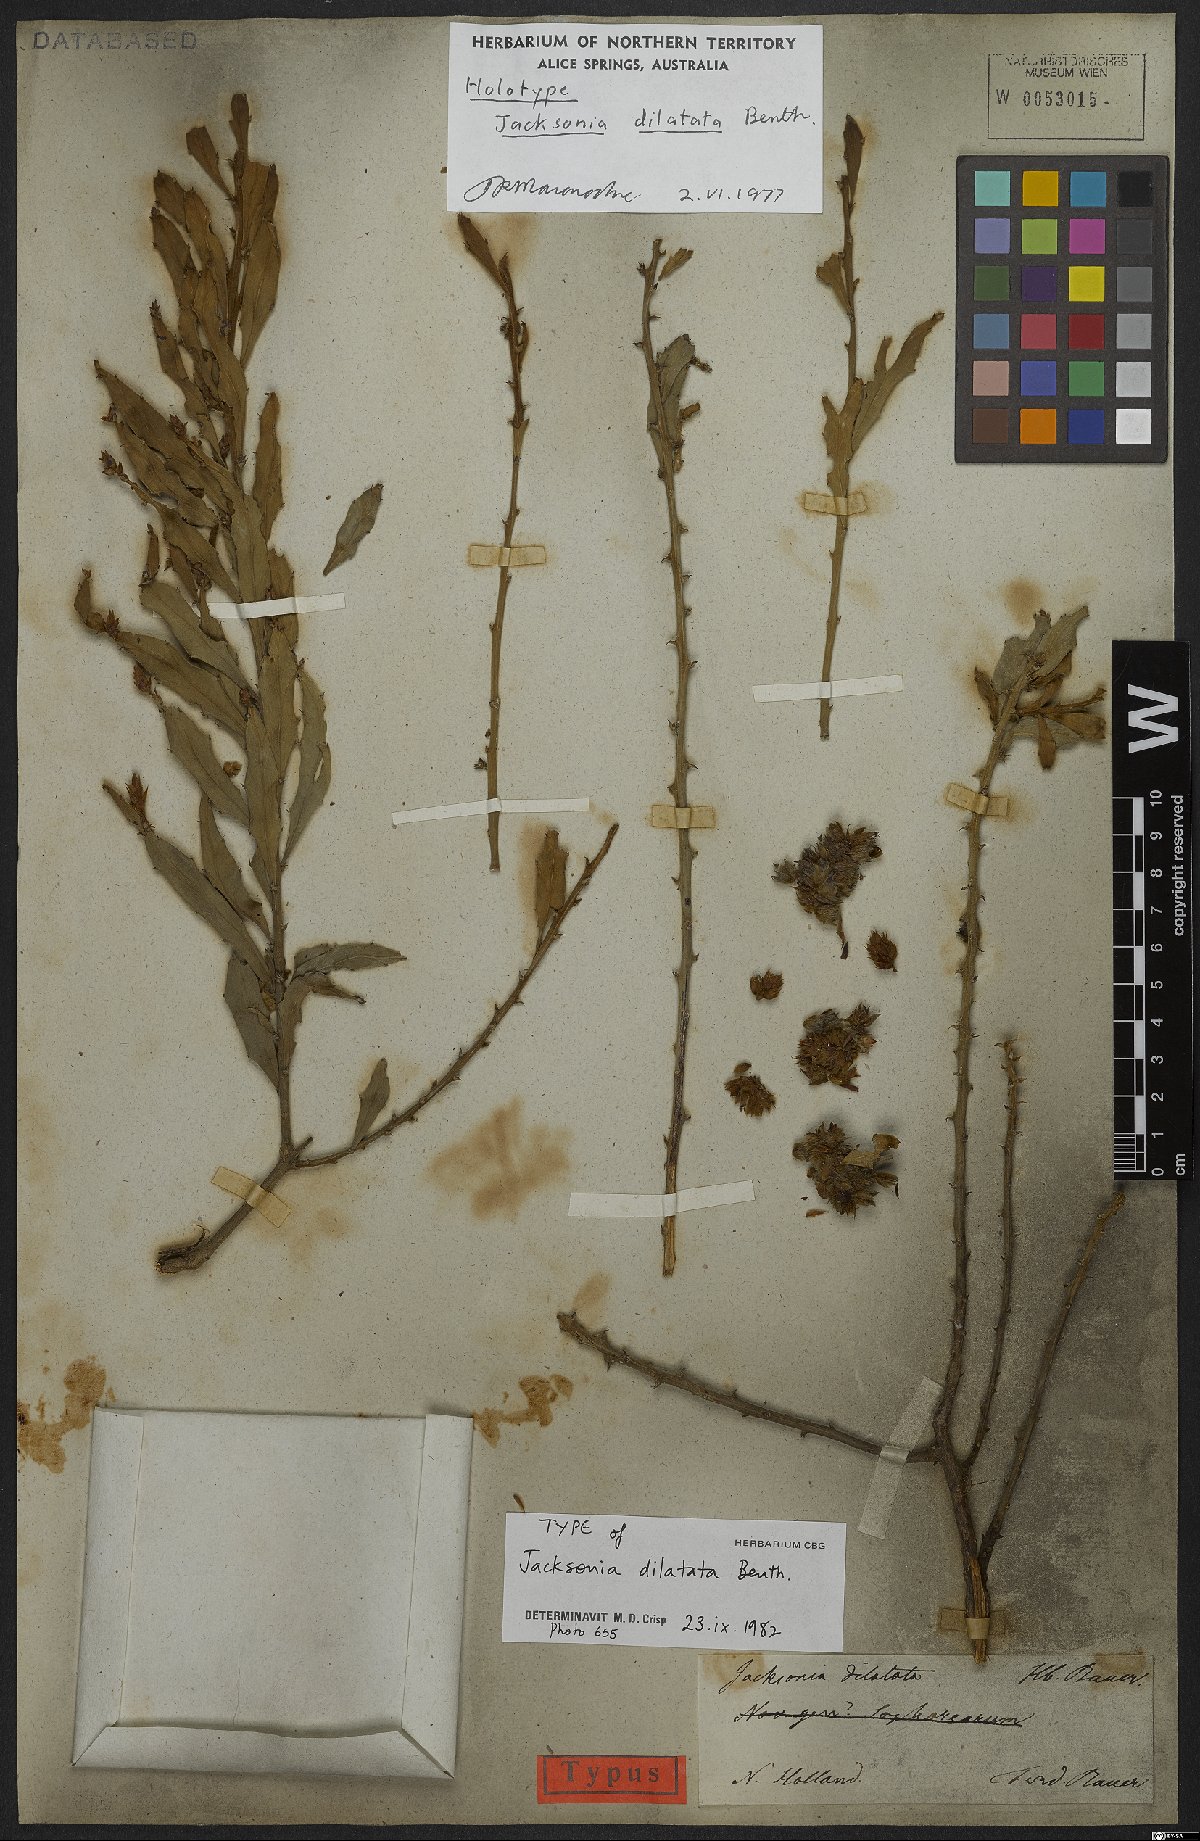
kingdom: Plantae
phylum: Tracheophyta
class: Magnoliopsida
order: Fabales
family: Fabaceae
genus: Jacksonia
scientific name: Jacksonia dilatata
